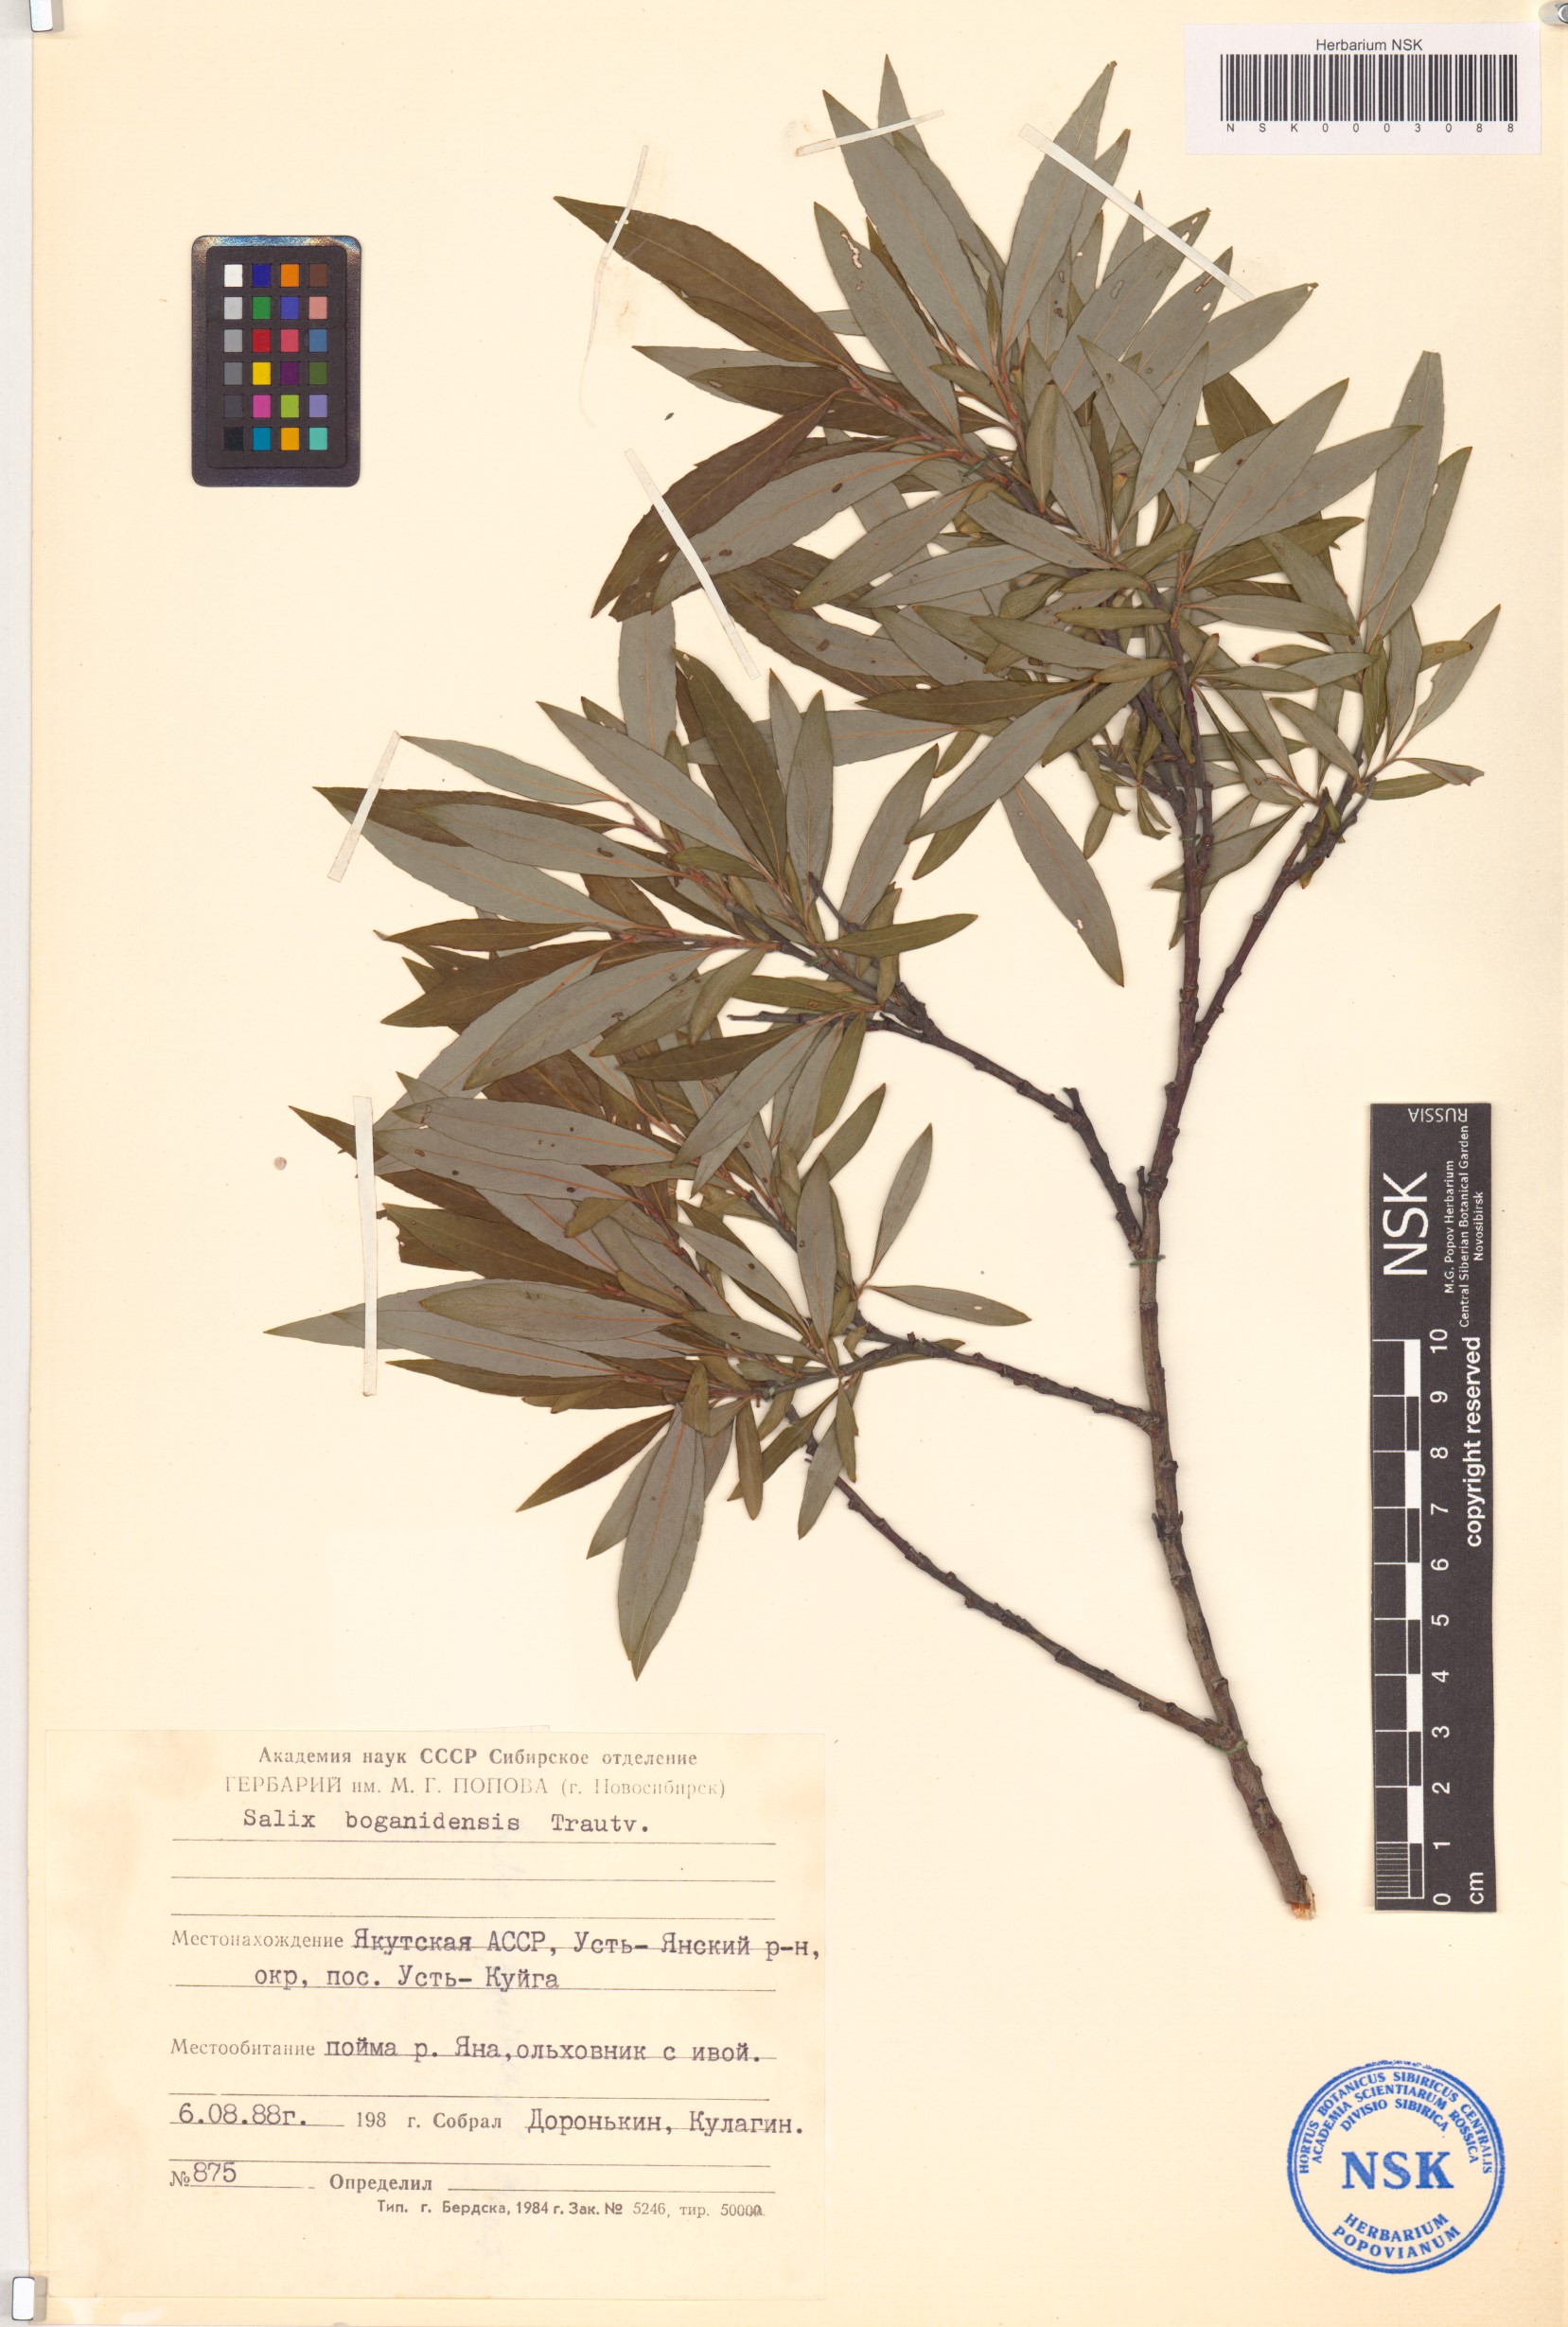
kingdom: Plantae
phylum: Tracheophyta
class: Magnoliopsida
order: Malpighiales
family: Salicaceae
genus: Salix
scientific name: Salix boganidensis
